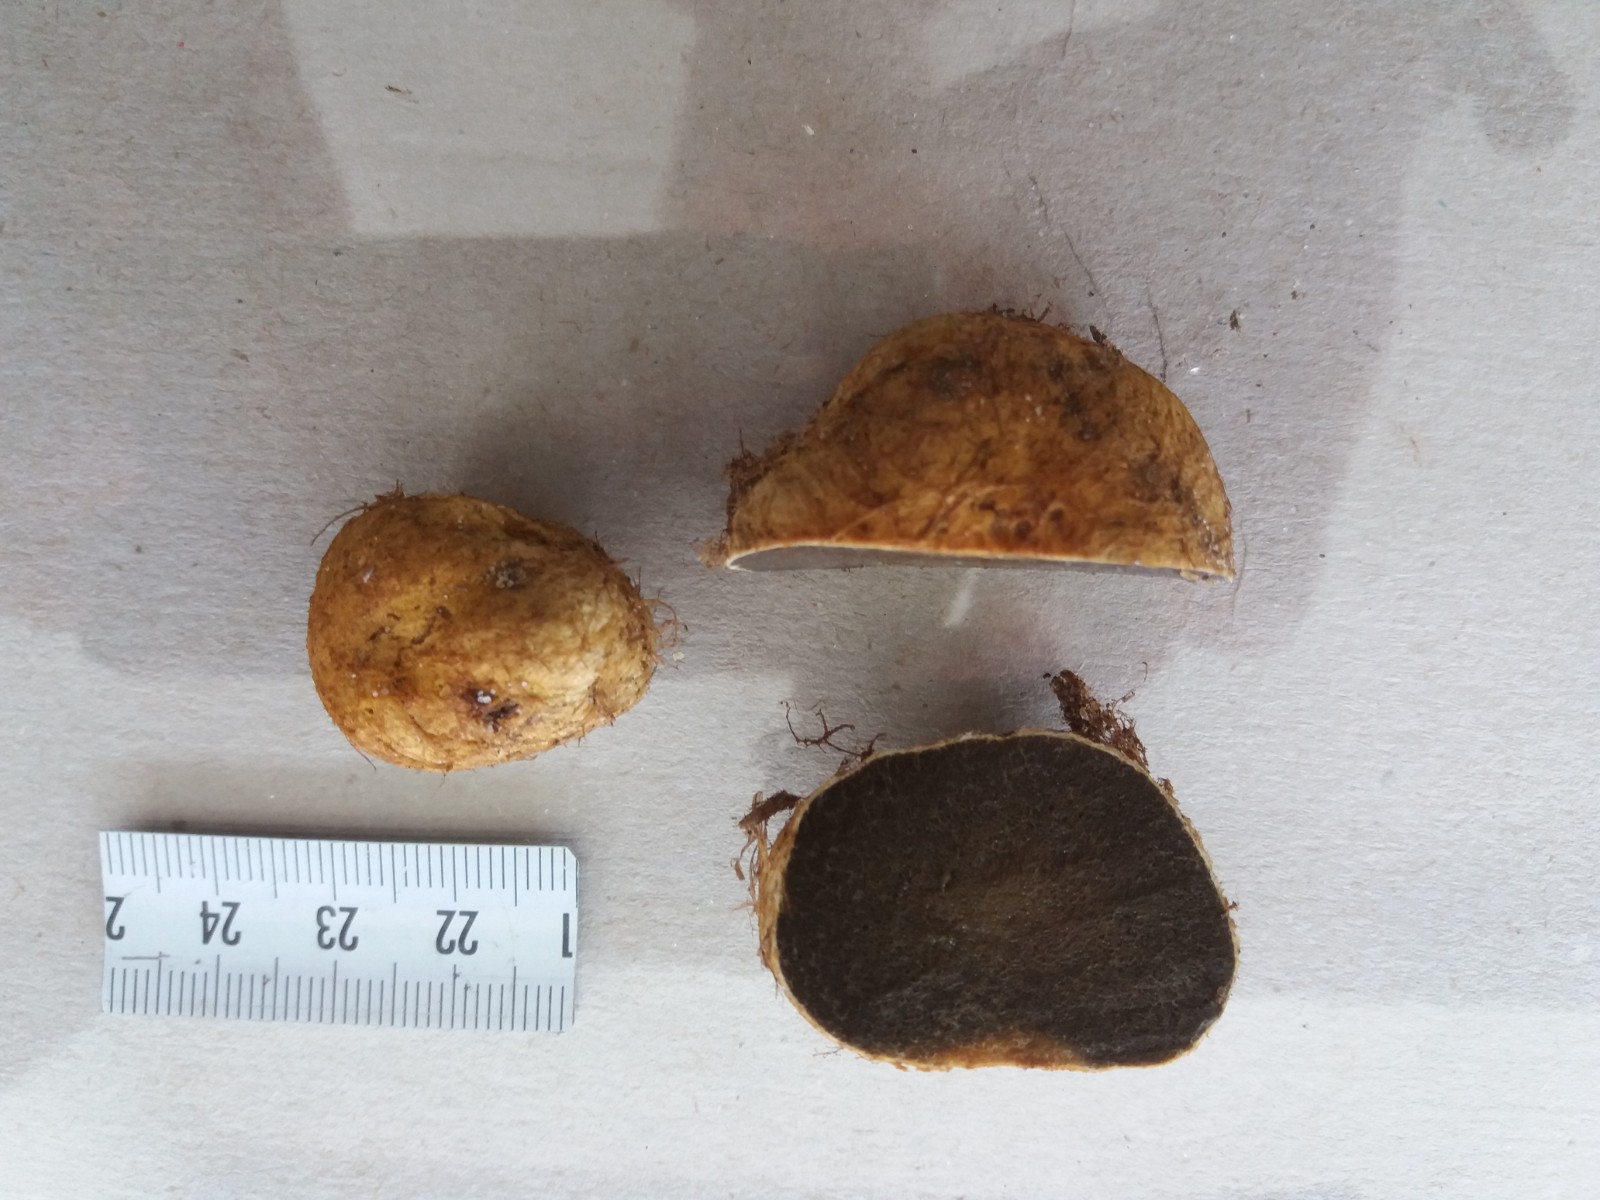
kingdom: Fungi
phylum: Basidiomycota
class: Agaricomycetes
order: Boletales
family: Rhizopogonaceae
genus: Rhizopogon
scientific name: Rhizopogon obtextus
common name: gul skægtrøffel
